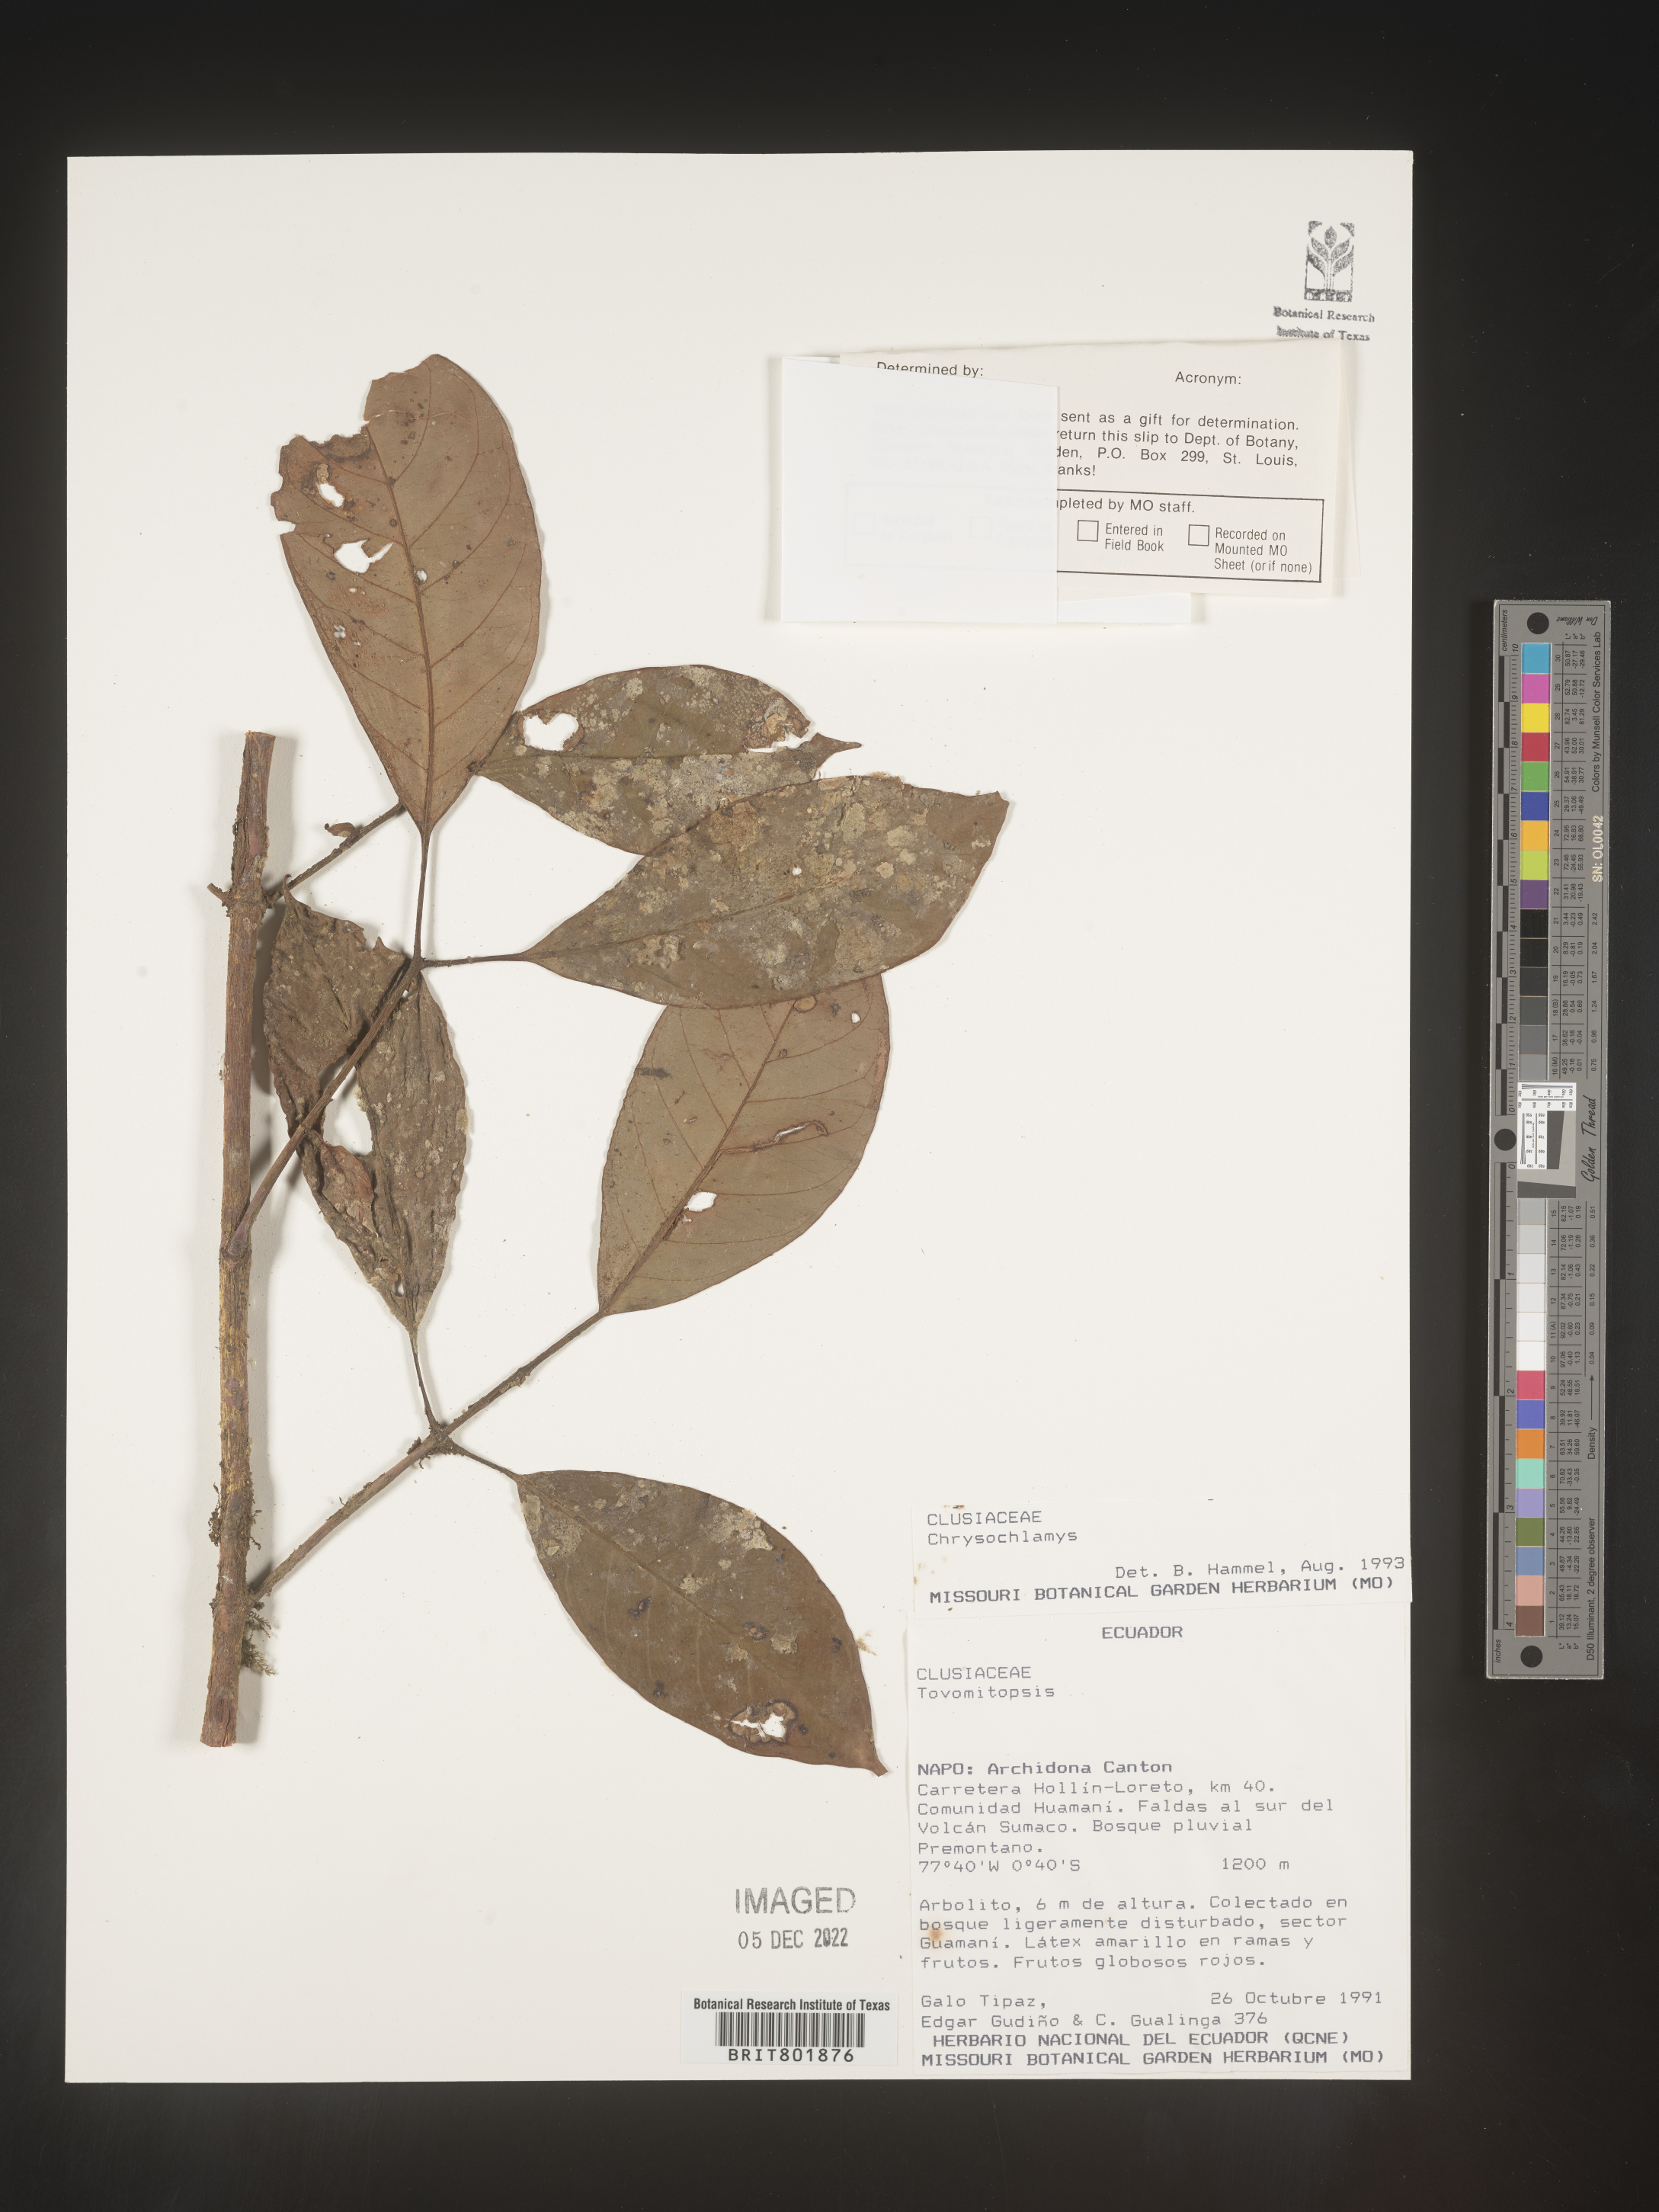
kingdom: Plantae
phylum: Tracheophyta
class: Magnoliopsida
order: Malpighiales
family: Clusiaceae
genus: Chrysochlamys
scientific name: Chrysochlamys
